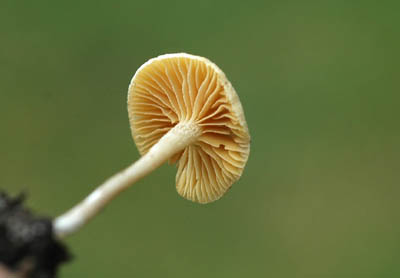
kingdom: Fungi
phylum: Basidiomycota
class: Agaricomycetes
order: Agaricales
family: Tubariaceae
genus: Tubaria
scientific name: Tubaria dispersa
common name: tjørne-fnughat
